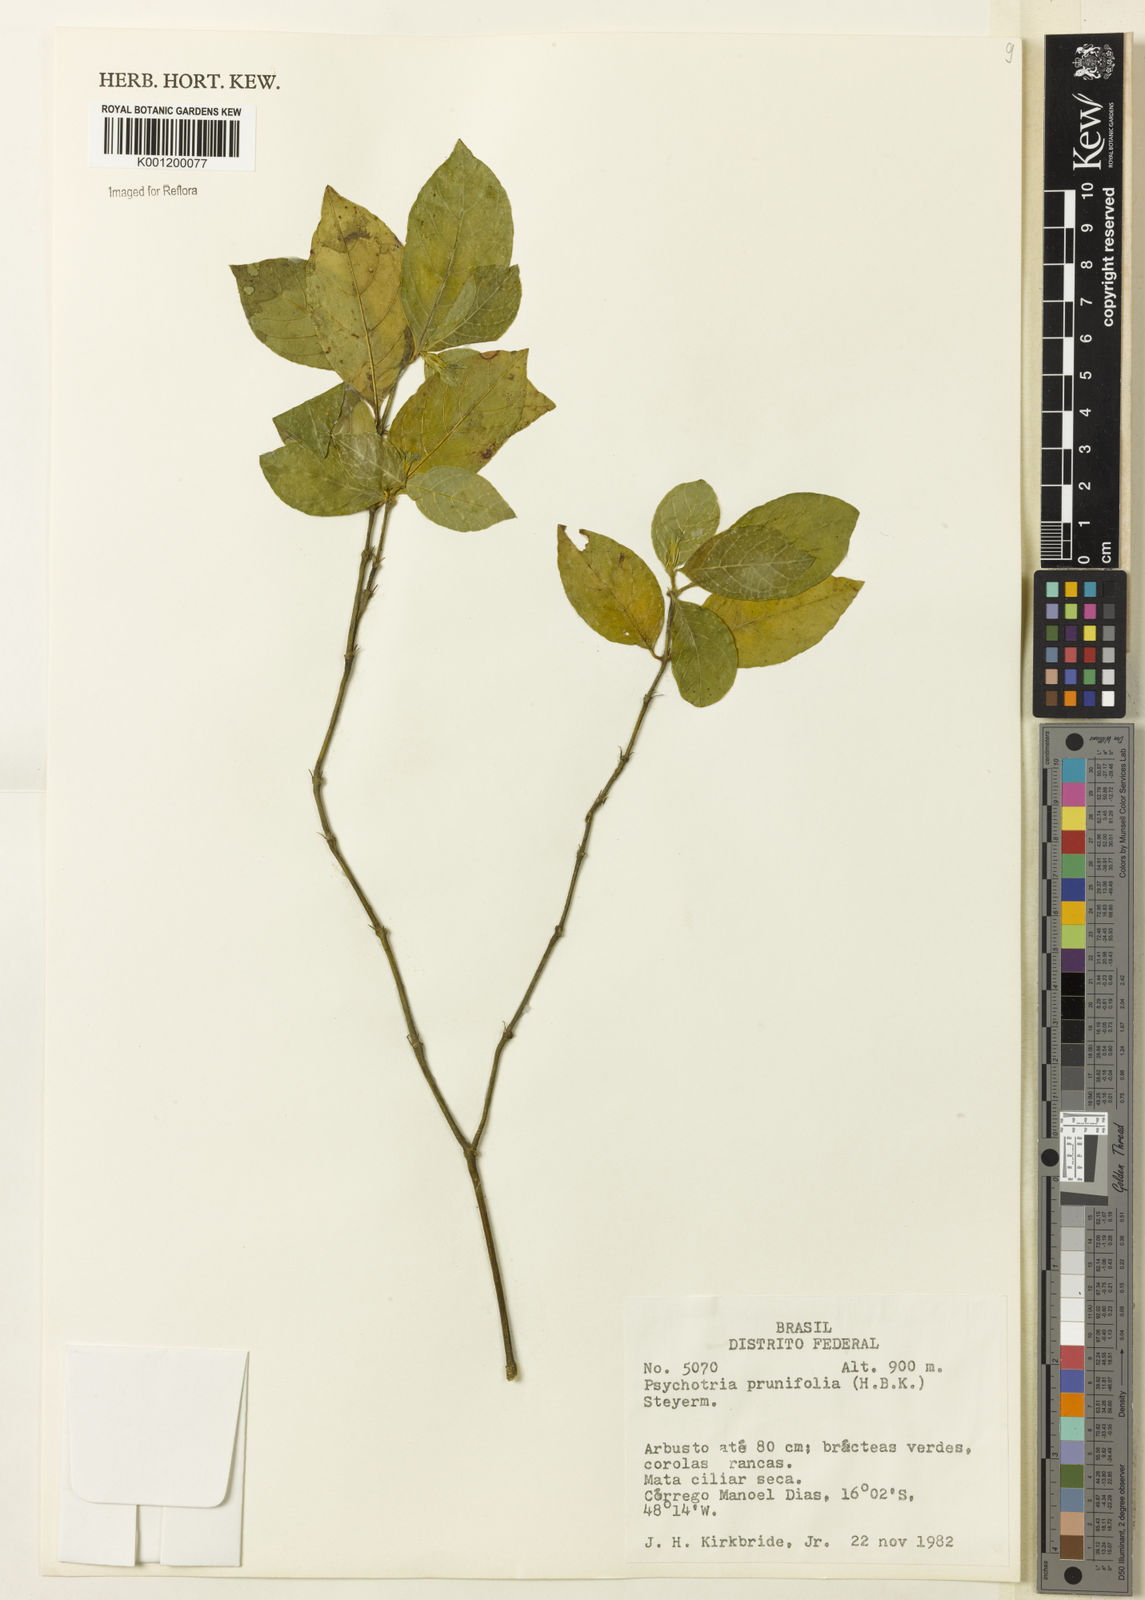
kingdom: Plantae
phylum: Tracheophyta
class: Magnoliopsida
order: Gentianales
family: Rubiaceae
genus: Palicourea
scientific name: Palicourea prunifolia
